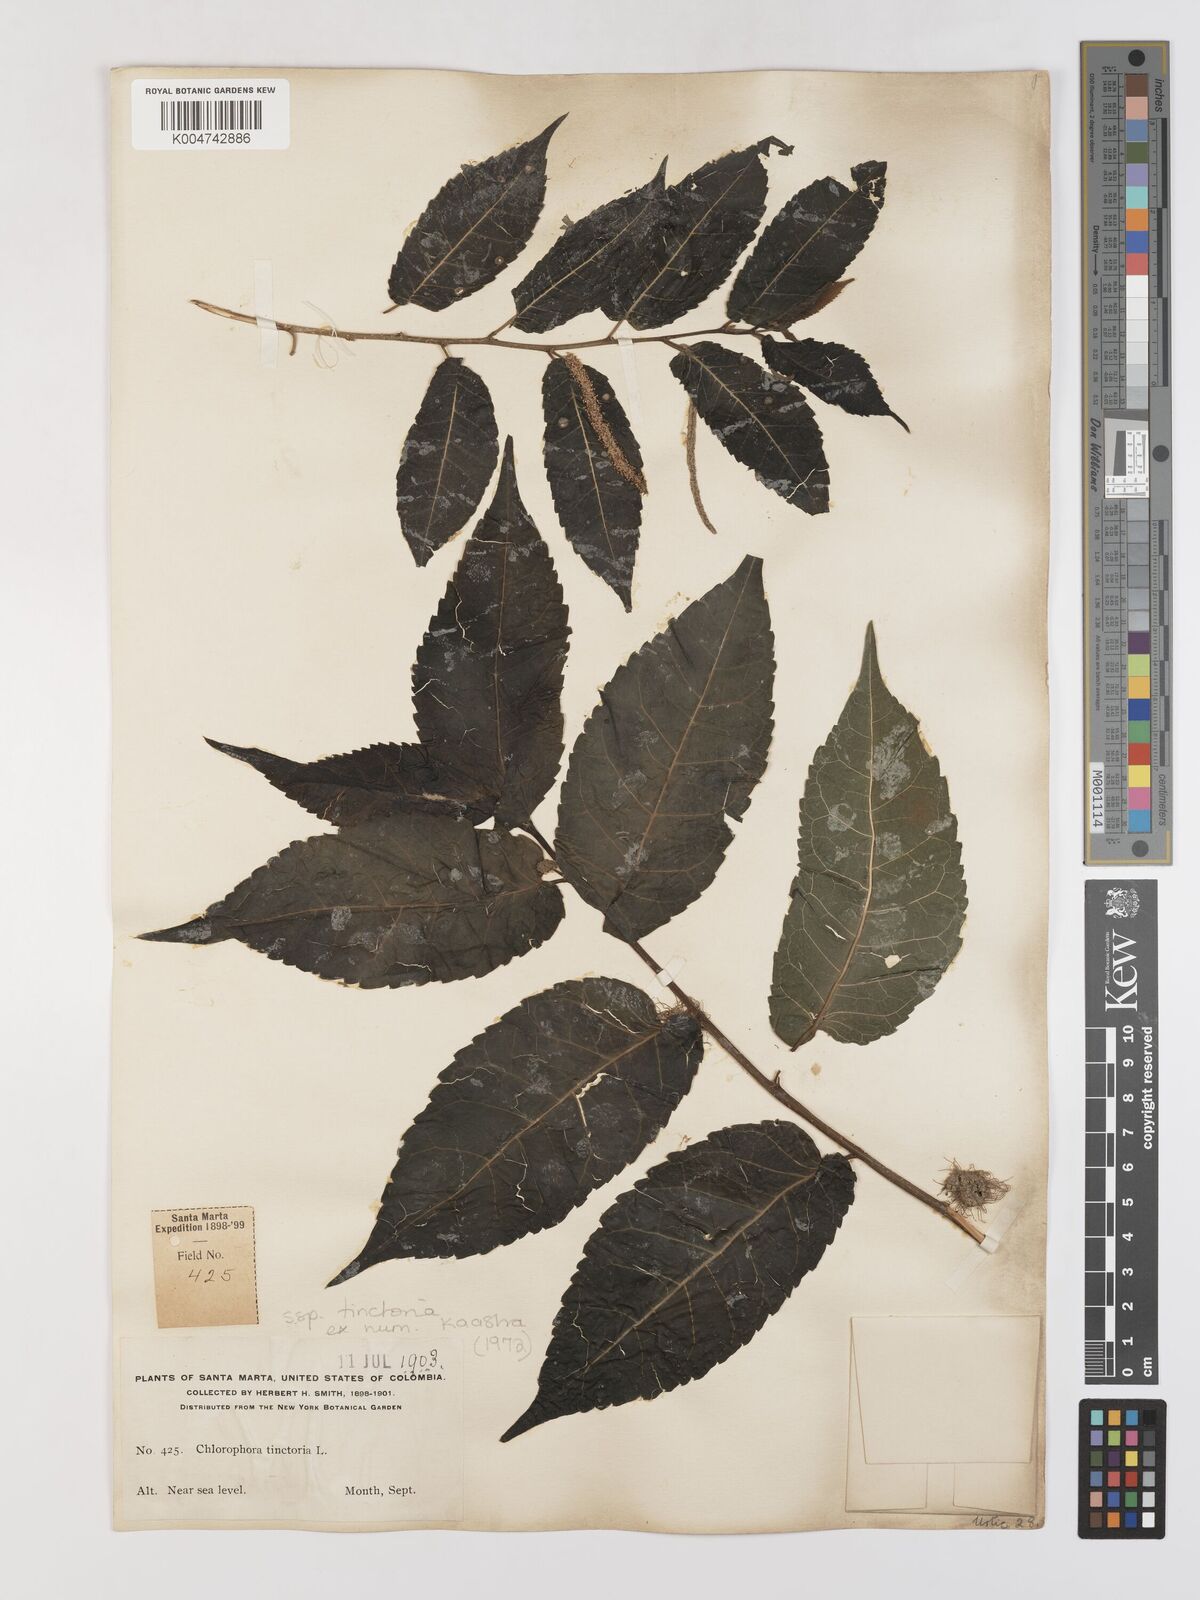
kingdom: Plantae
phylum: Tracheophyta
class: Magnoliopsida
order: Rosales
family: Moraceae
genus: Maclura
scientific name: Maclura tinctoria
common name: Old fustic
